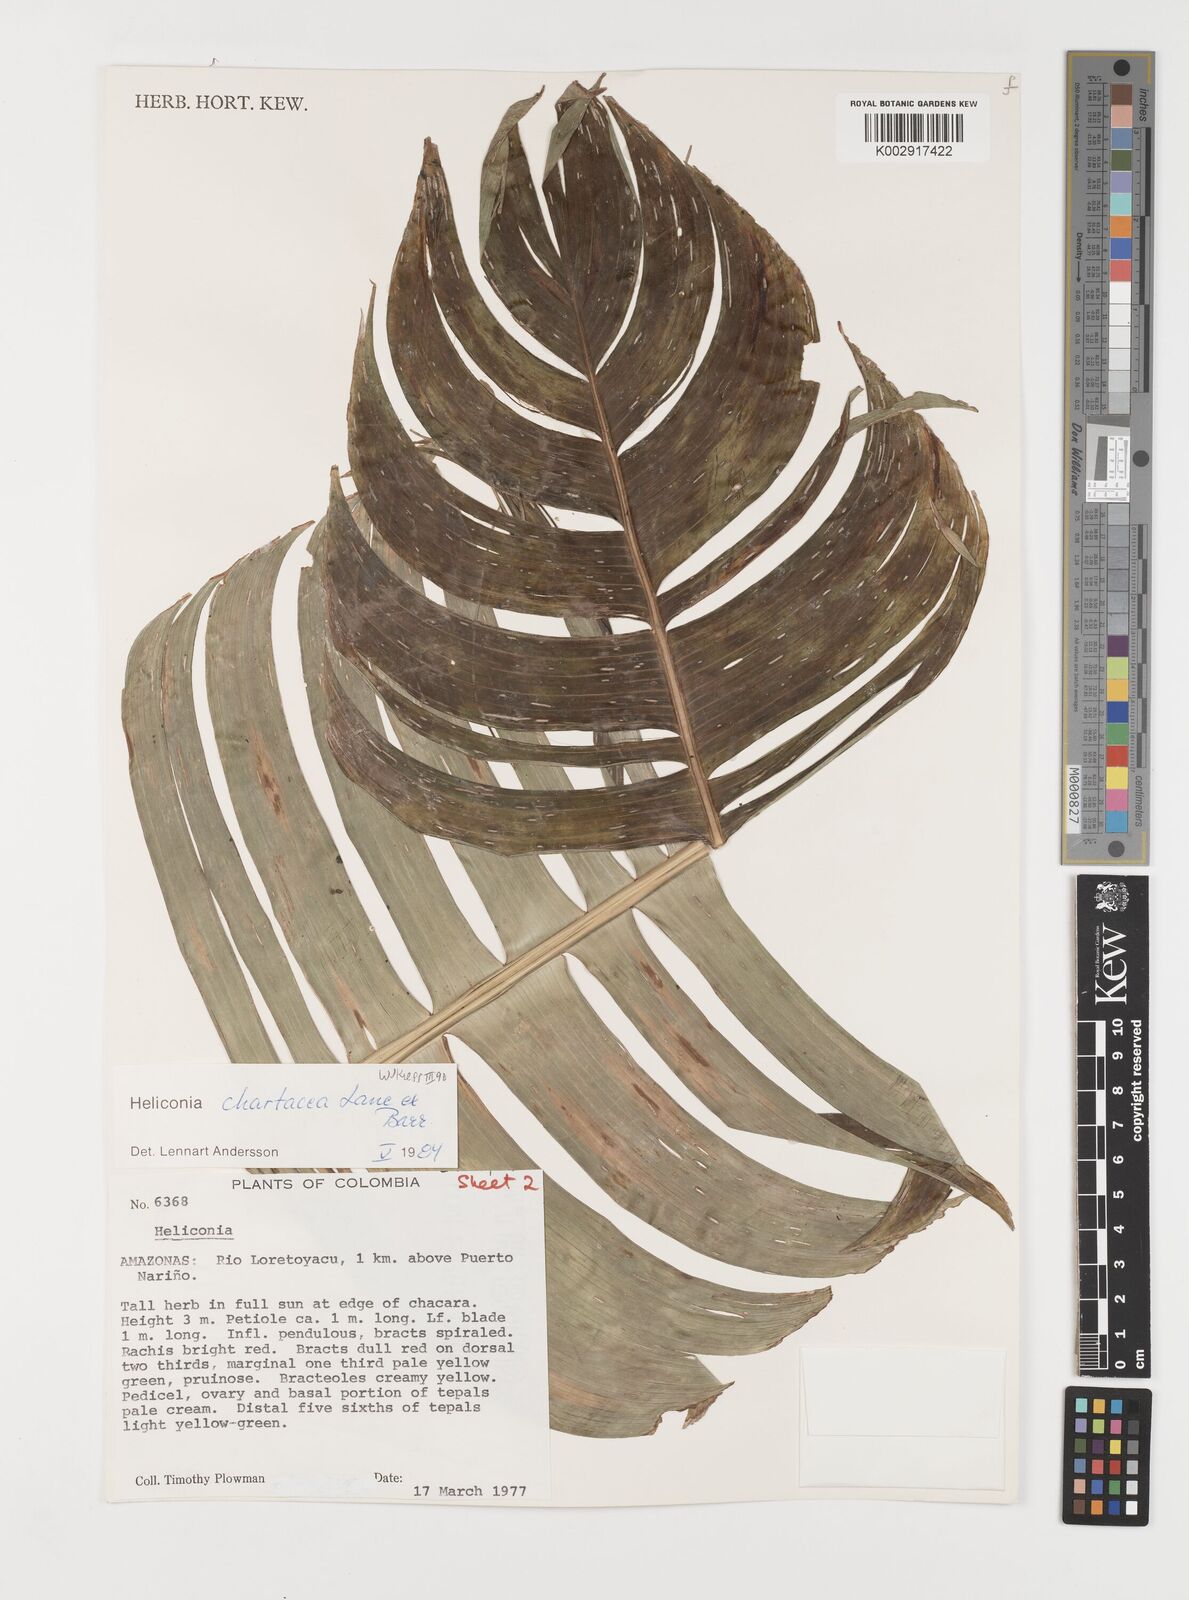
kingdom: Plantae
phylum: Tracheophyta
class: Liliopsida
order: Zingiberales
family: Heliconiaceae
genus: Heliconia
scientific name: Heliconia chartacea
